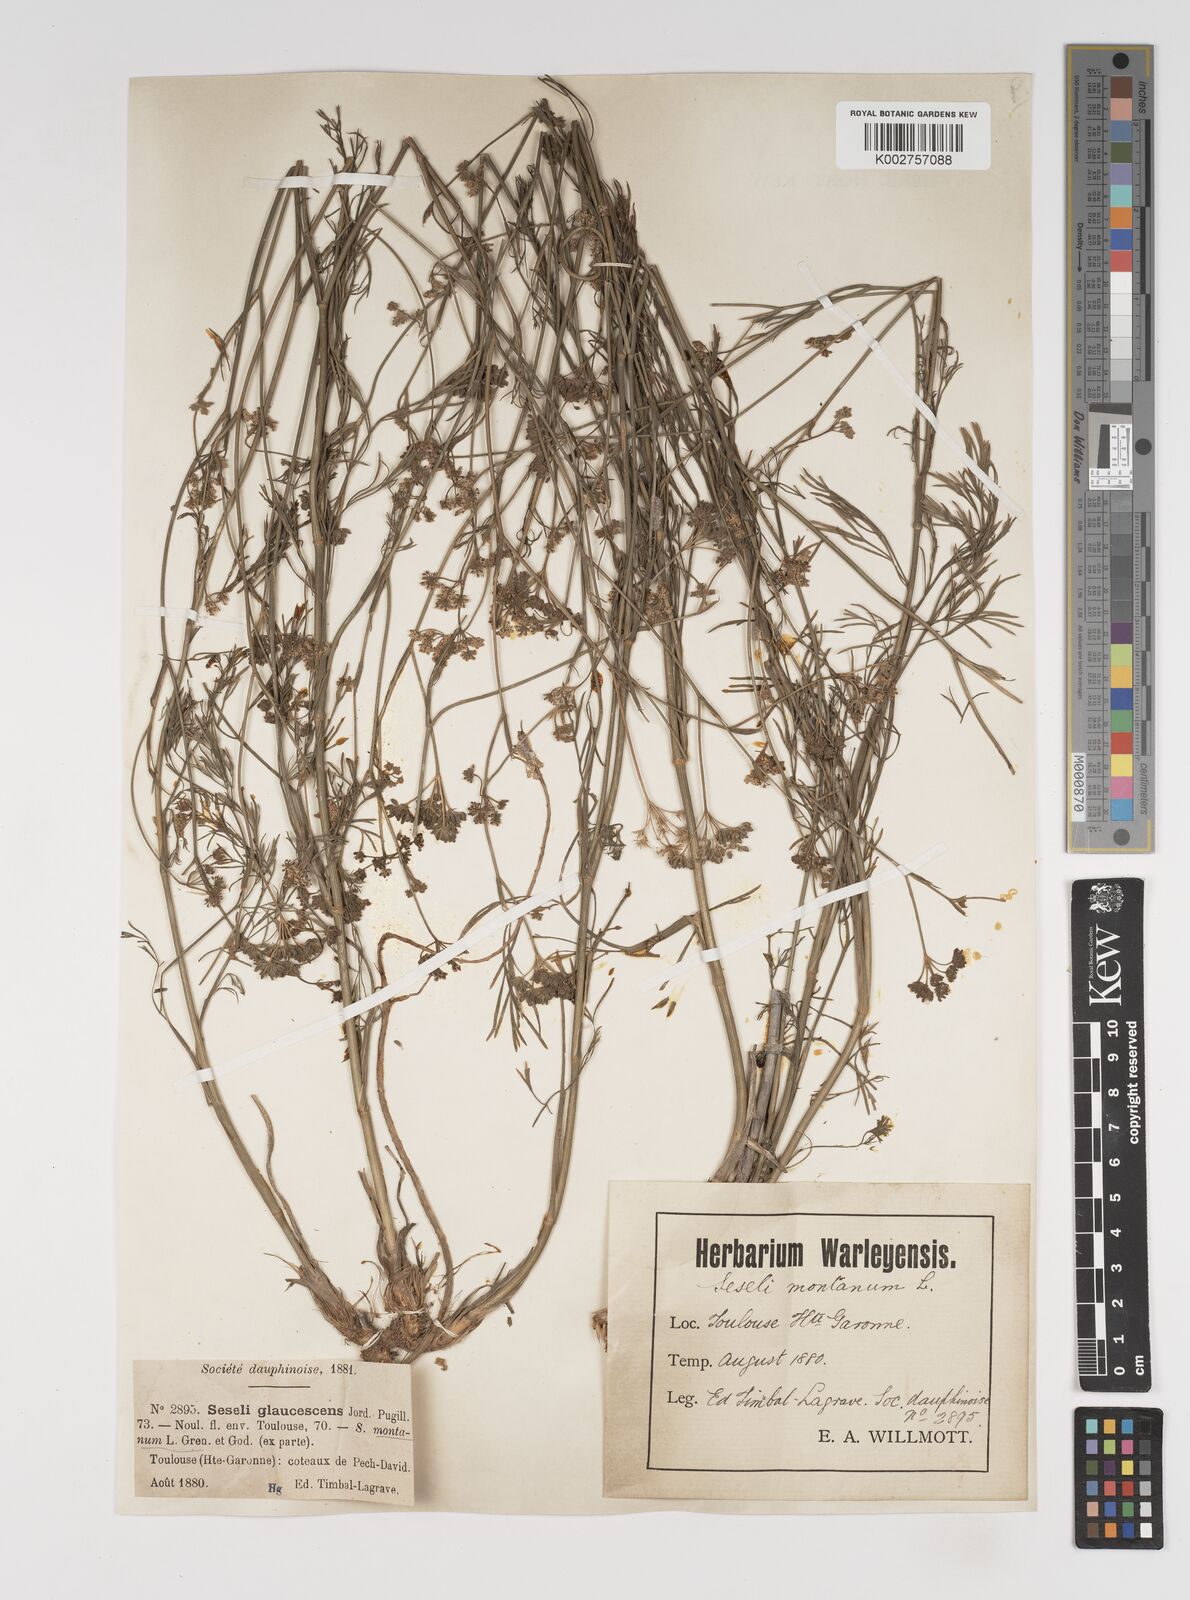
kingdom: Plantae
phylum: Tracheophyta
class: Magnoliopsida
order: Apiales
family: Apiaceae
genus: Seseli
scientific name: Seseli montanum
